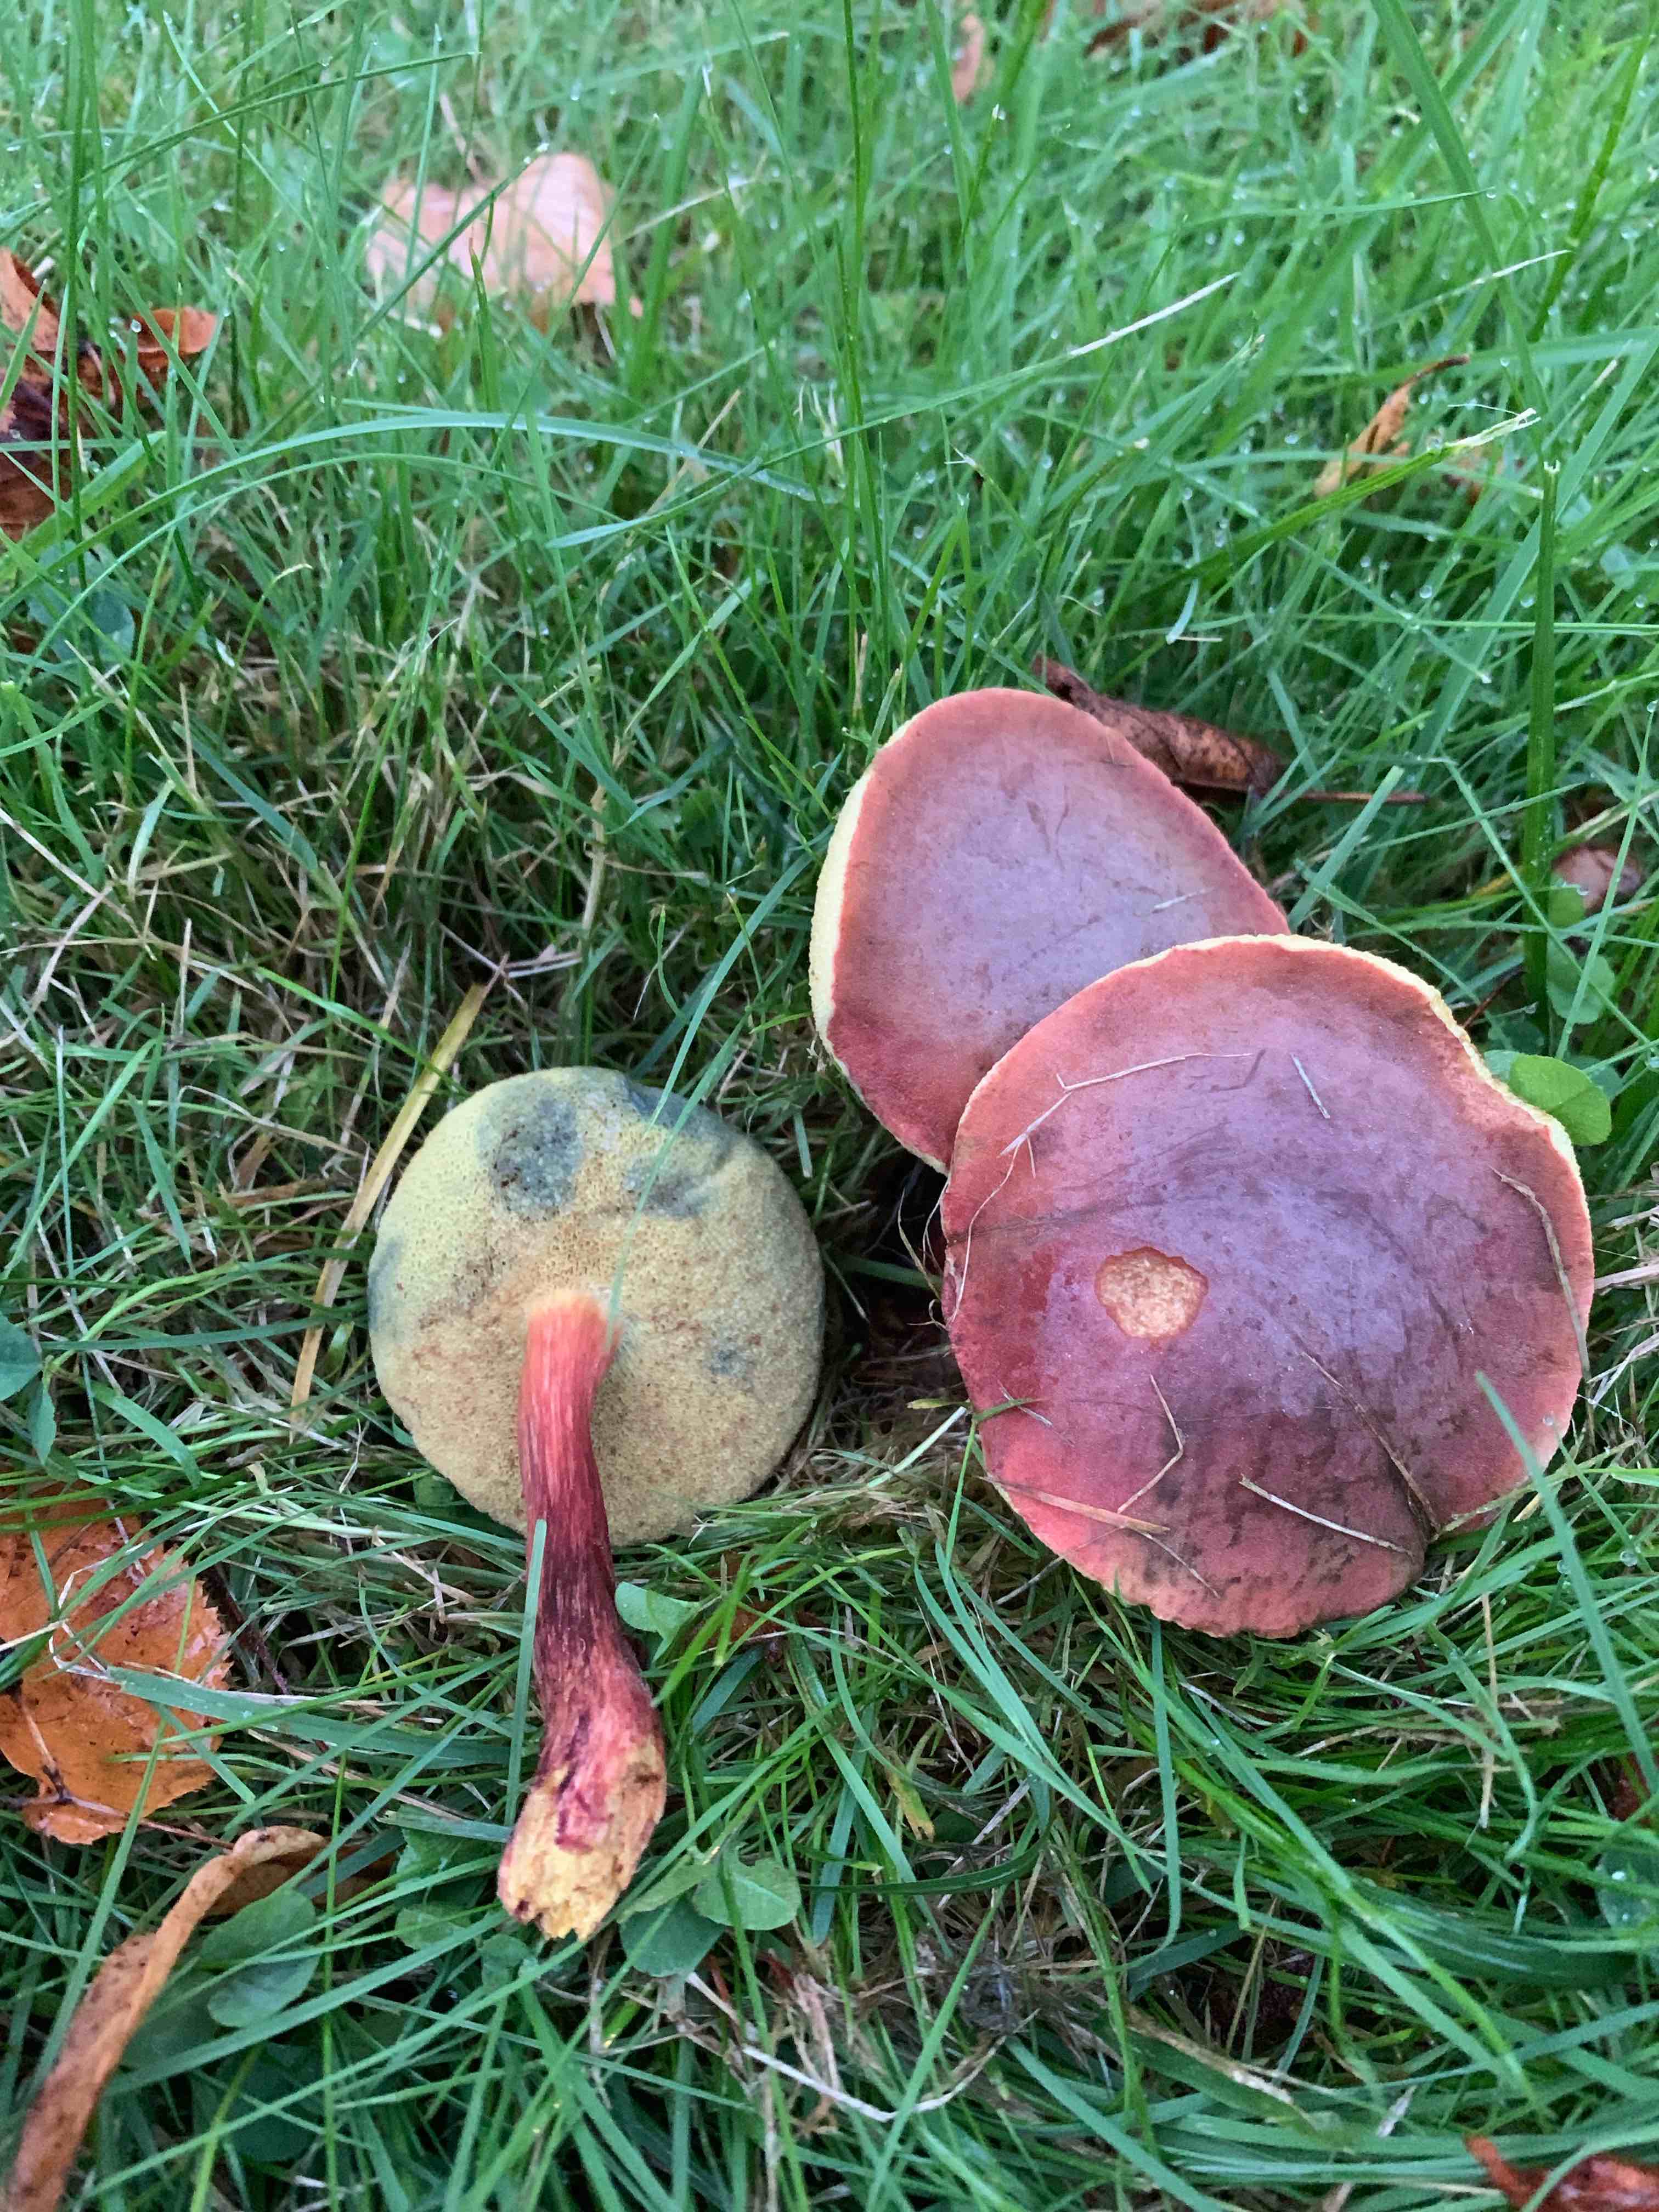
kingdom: Fungi
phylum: Basidiomycota
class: Agaricomycetes
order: Boletales
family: Boletaceae
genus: Hortiboletus
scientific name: Hortiboletus rubellus
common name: blodrød rørhat
